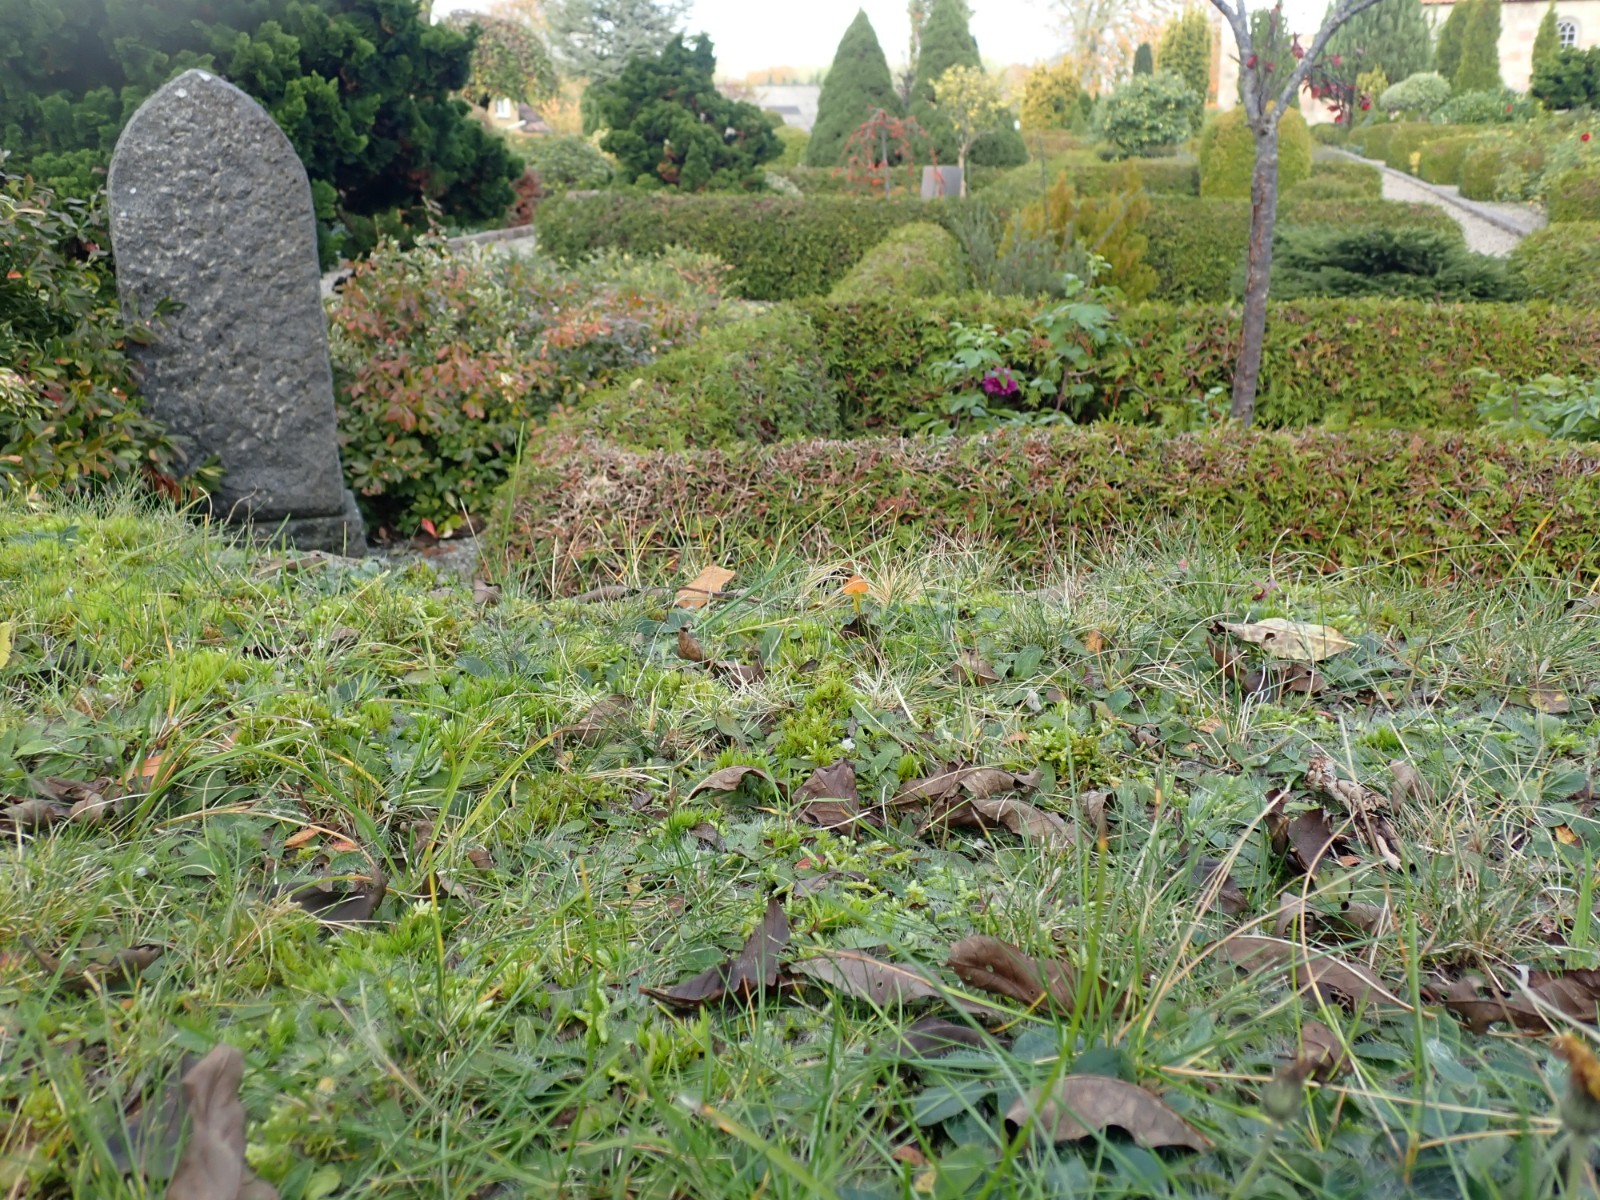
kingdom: Fungi
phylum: Basidiomycota
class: Agaricomycetes
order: Agaricales
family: Hygrophoraceae
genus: Hygrocybe
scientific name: Hygrocybe conica
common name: kegle-vokshat
